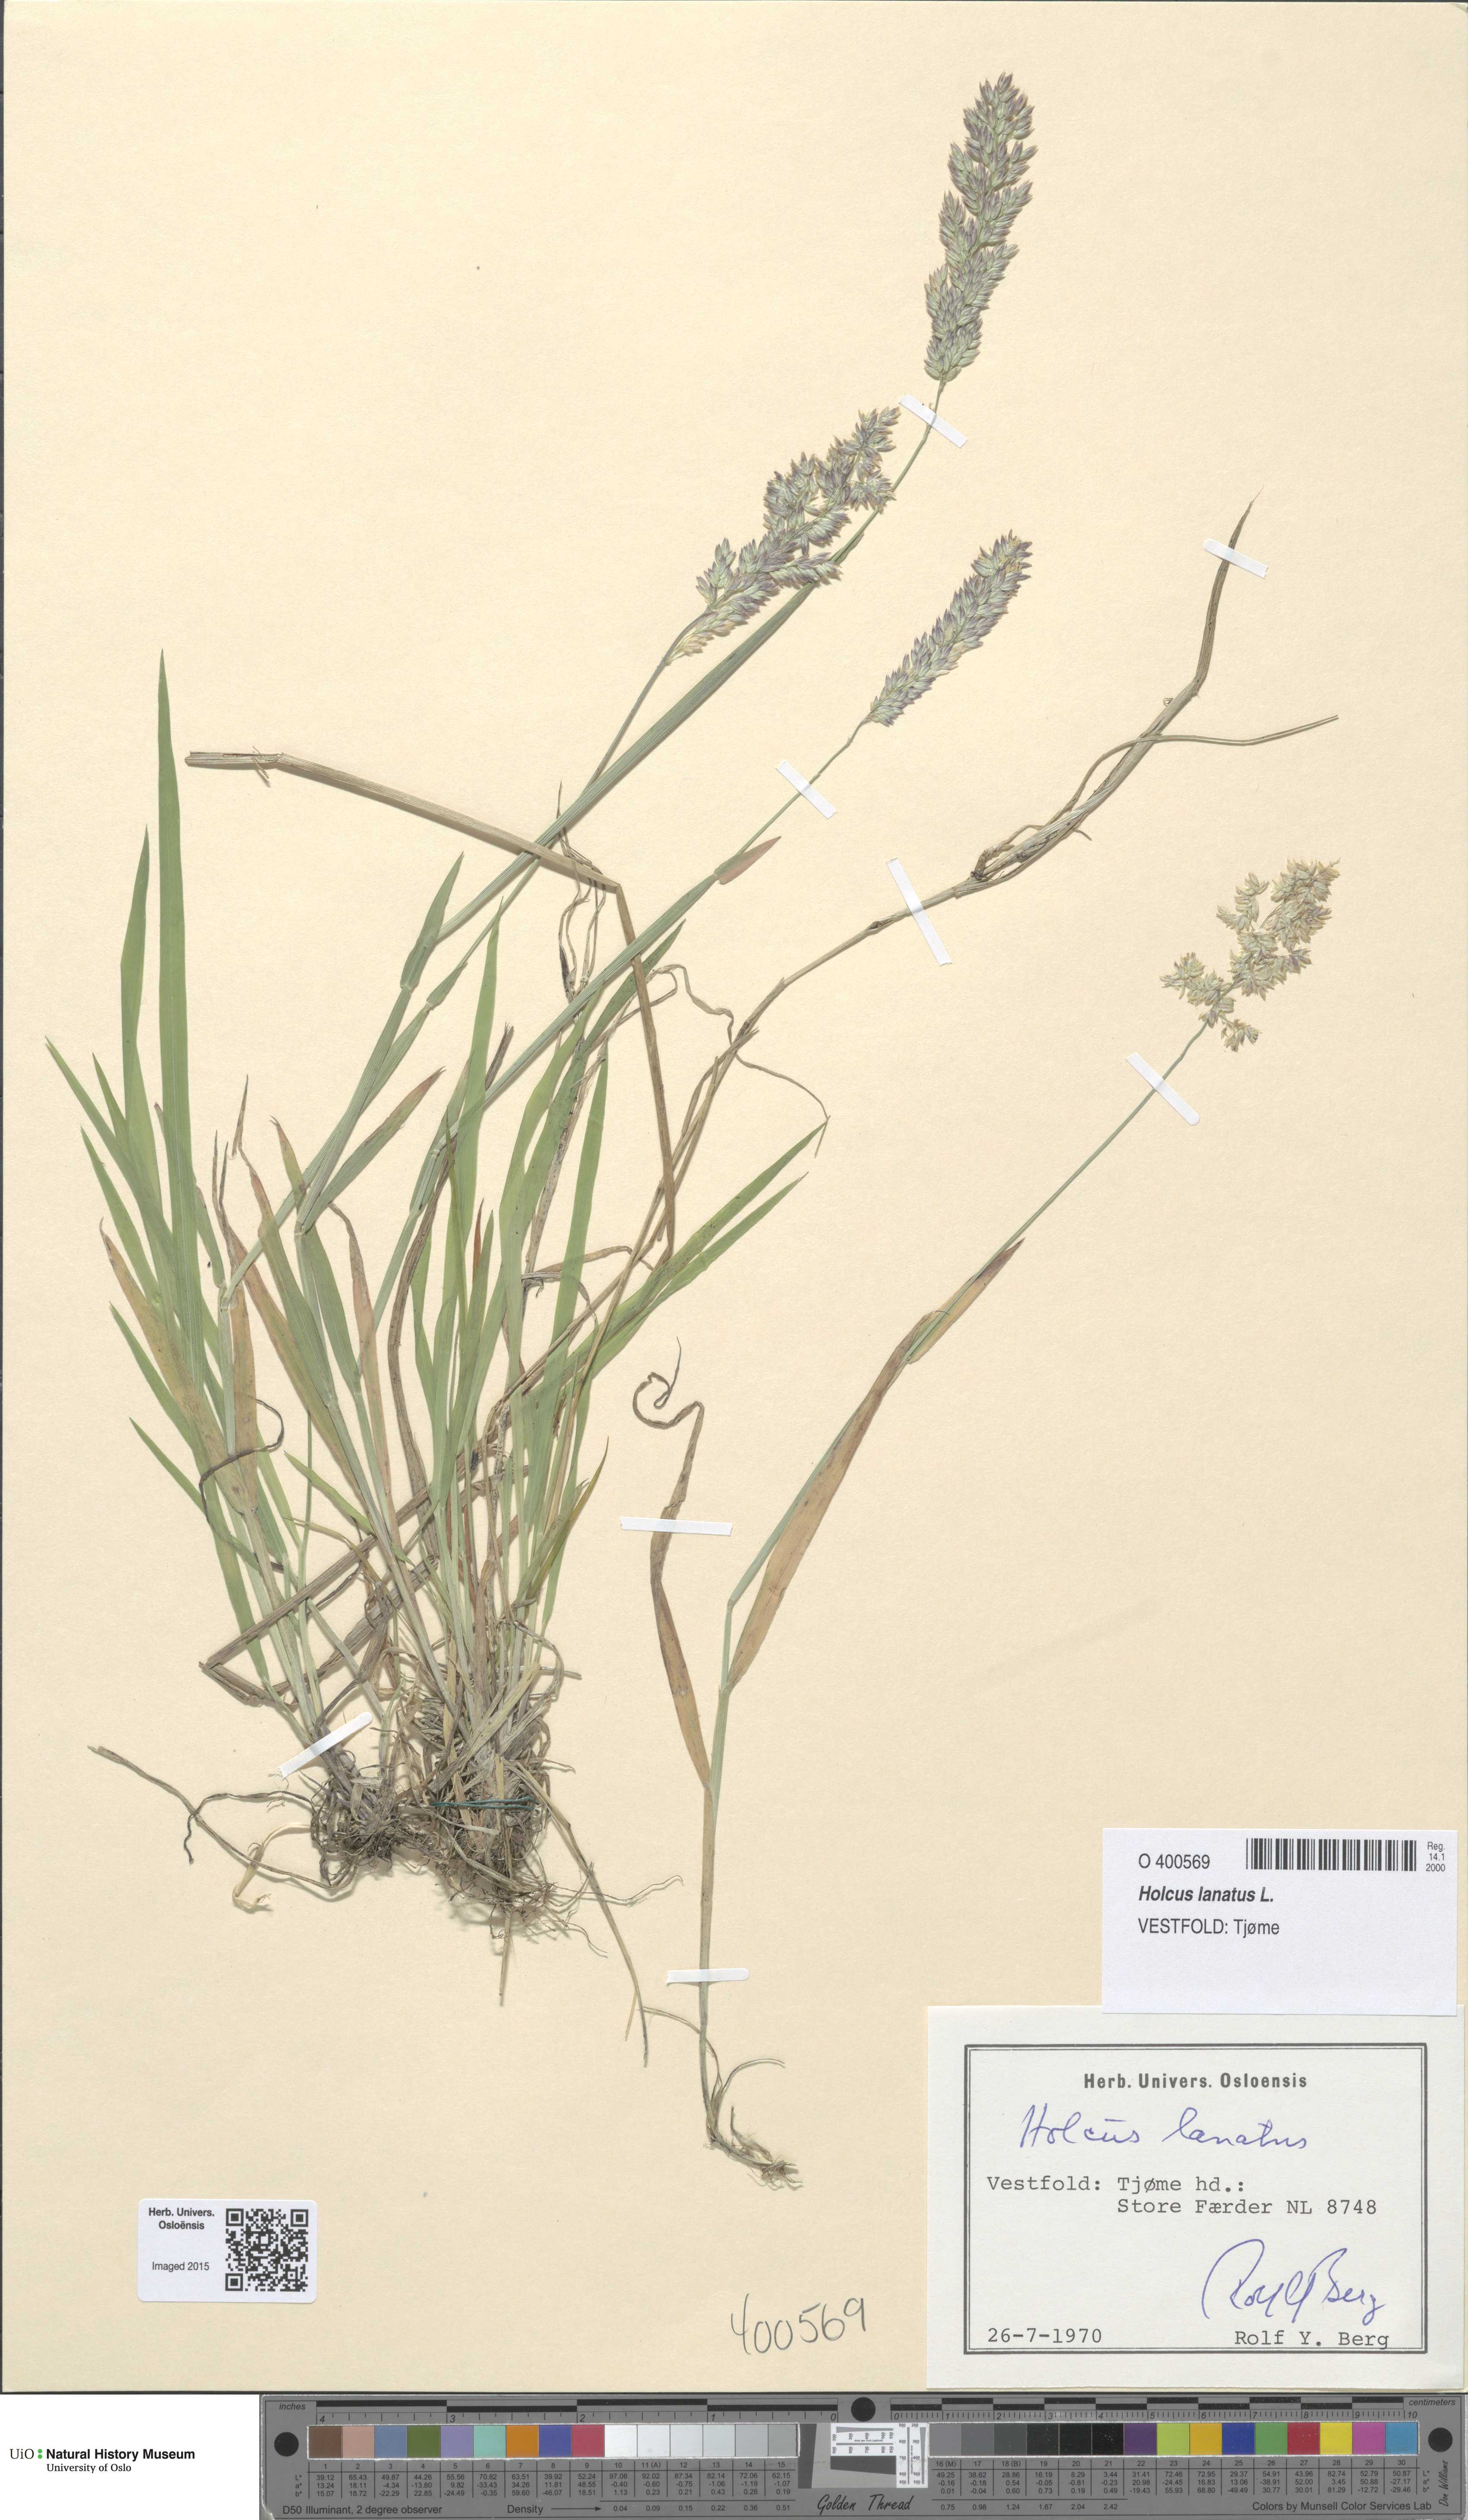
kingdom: Plantae
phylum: Tracheophyta
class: Liliopsida
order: Poales
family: Poaceae
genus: Holcus
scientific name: Holcus lanatus
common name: Yorkshire-fog
